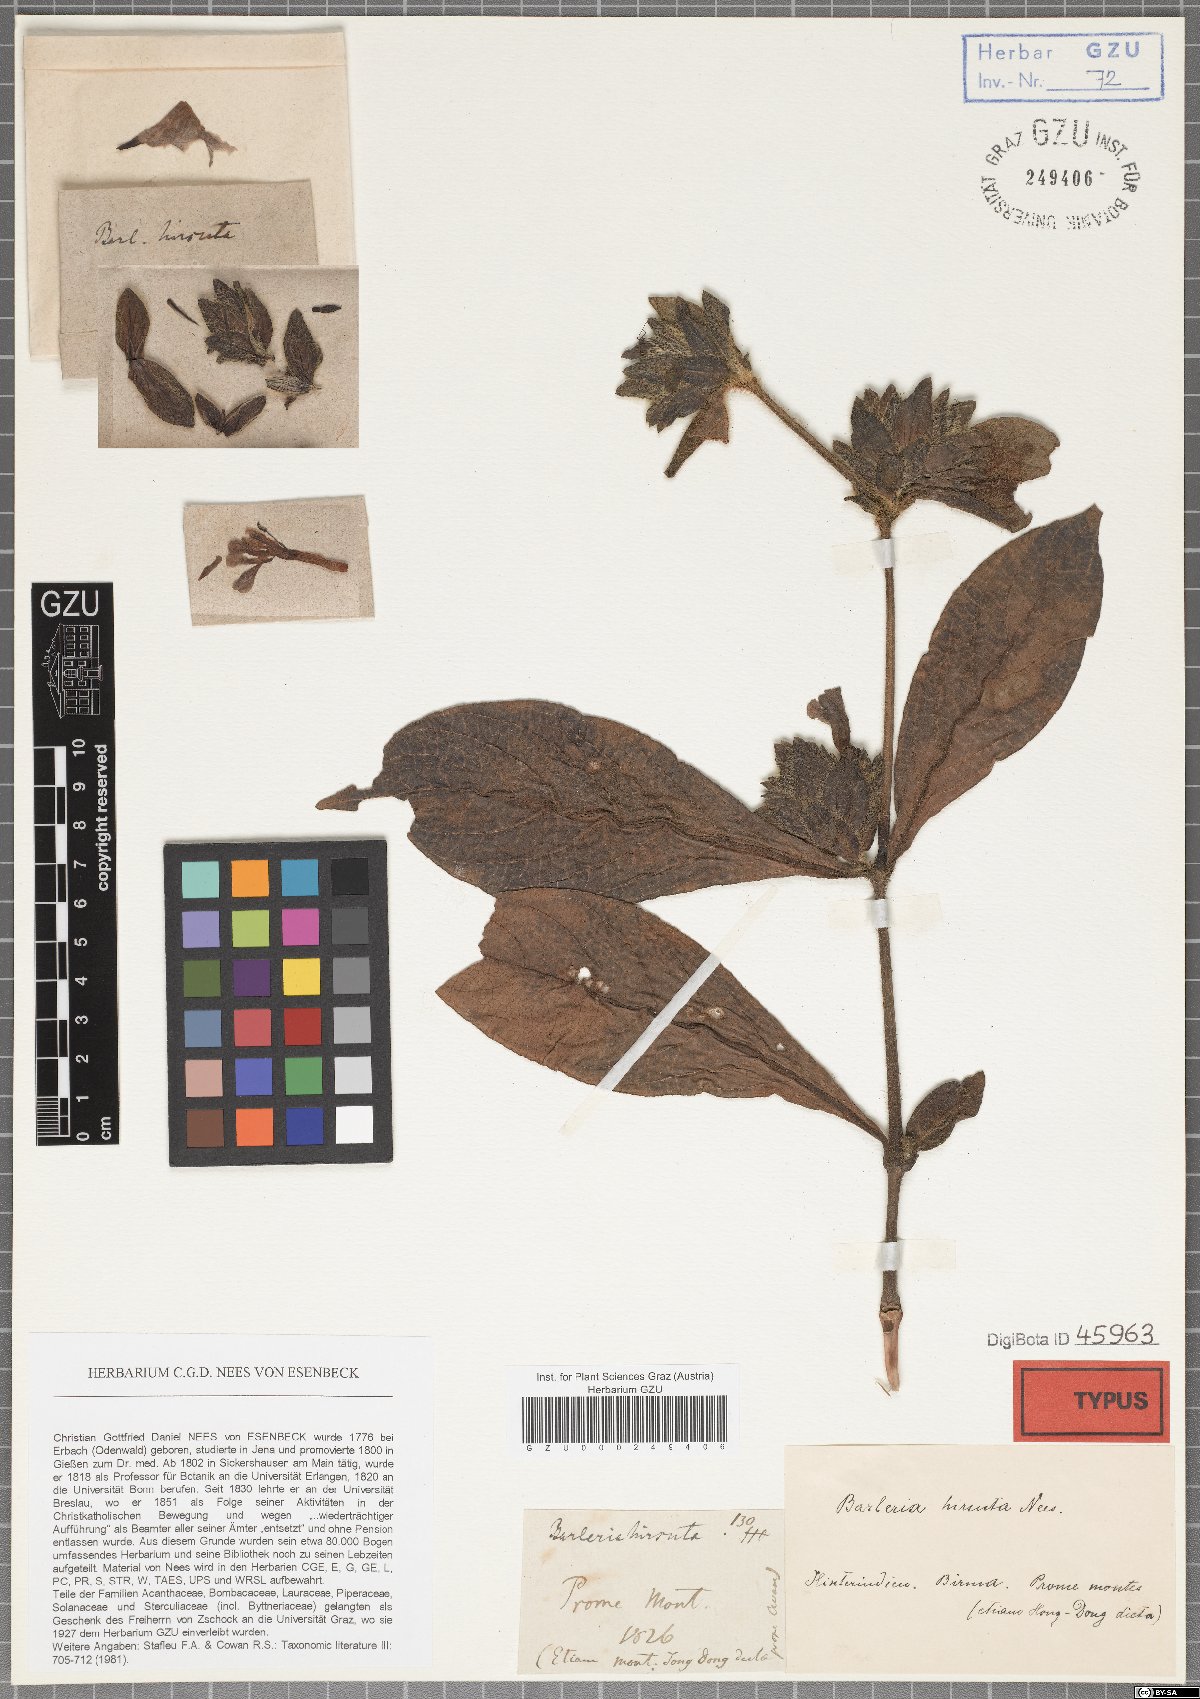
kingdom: Plantae
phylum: Tracheophyta
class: Magnoliopsida
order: Lamiales
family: Acanthaceae
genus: Barleria
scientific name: Barleria strigosa
